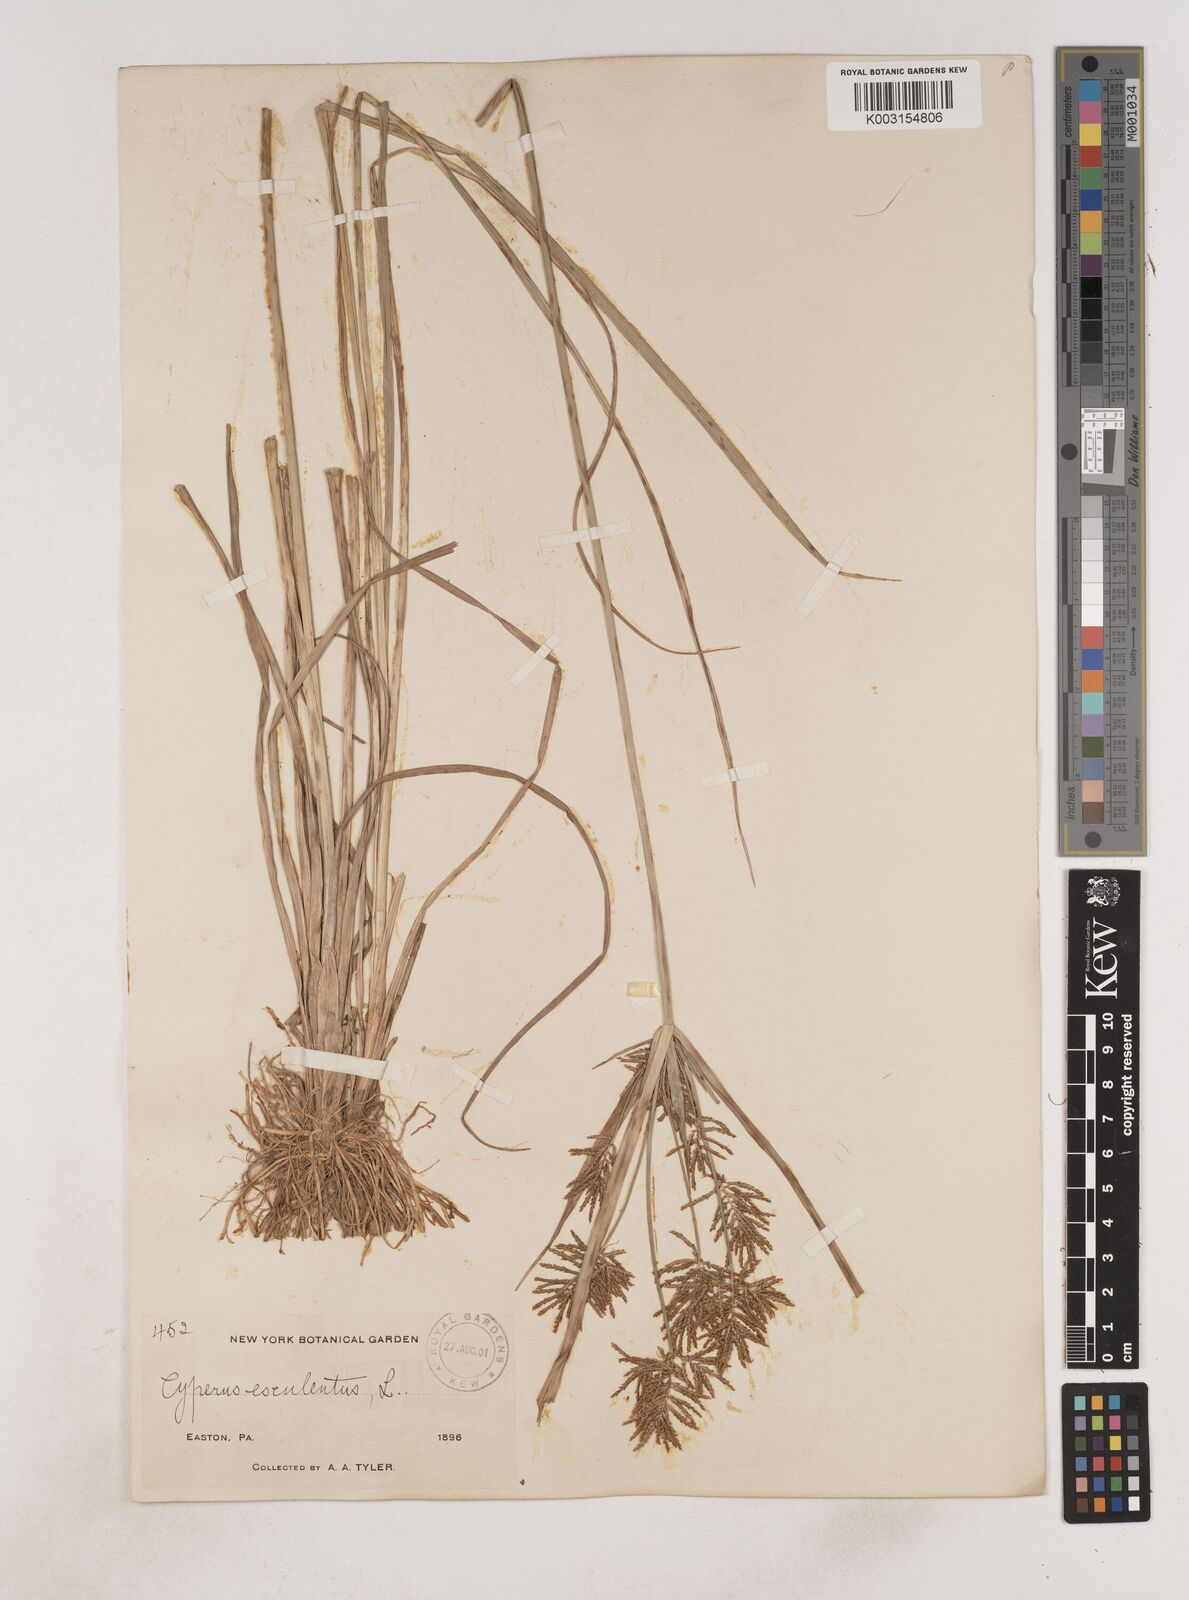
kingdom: Plantae
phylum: Tracheophyta
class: Liliopsida
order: Poales
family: Cyperaceae
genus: Cyperus
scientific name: Cyperus esculentus
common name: Yellow nutsedge
